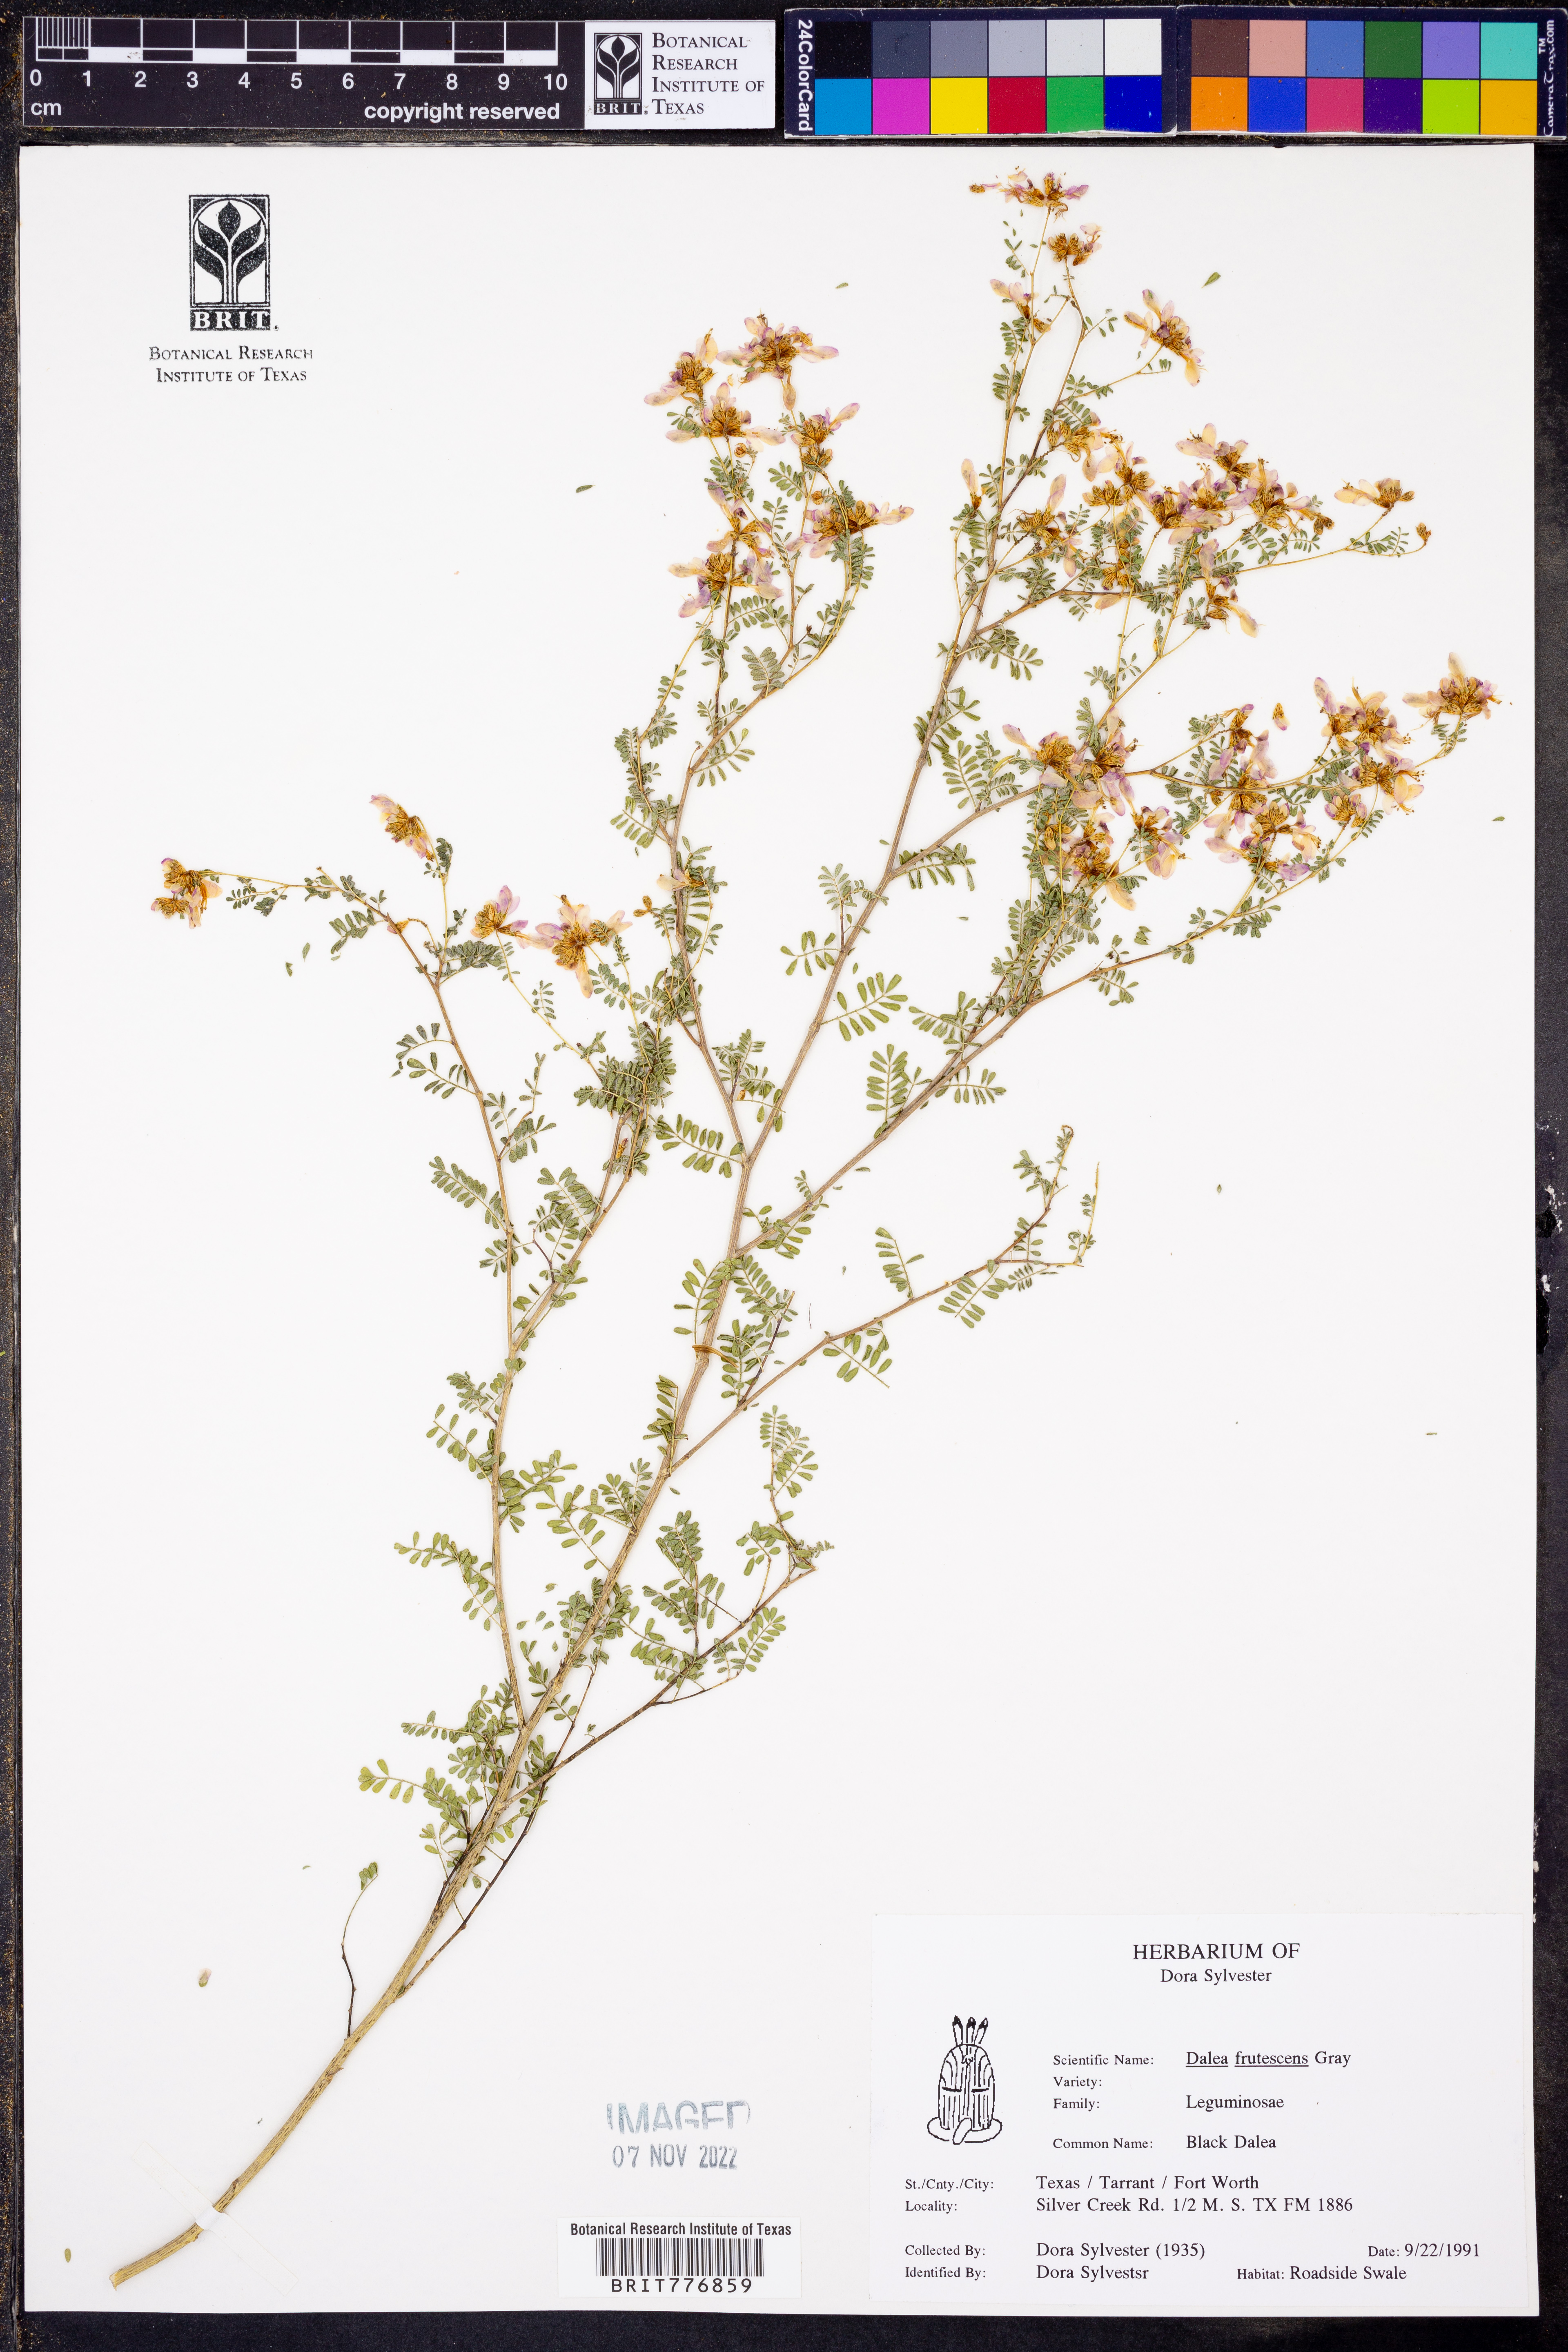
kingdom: Plantae
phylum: Tracheophyta
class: Magnoliopsida
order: Fabales
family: Fabaceae
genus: Dalea
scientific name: Dalea frutescens
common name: Black dalea
